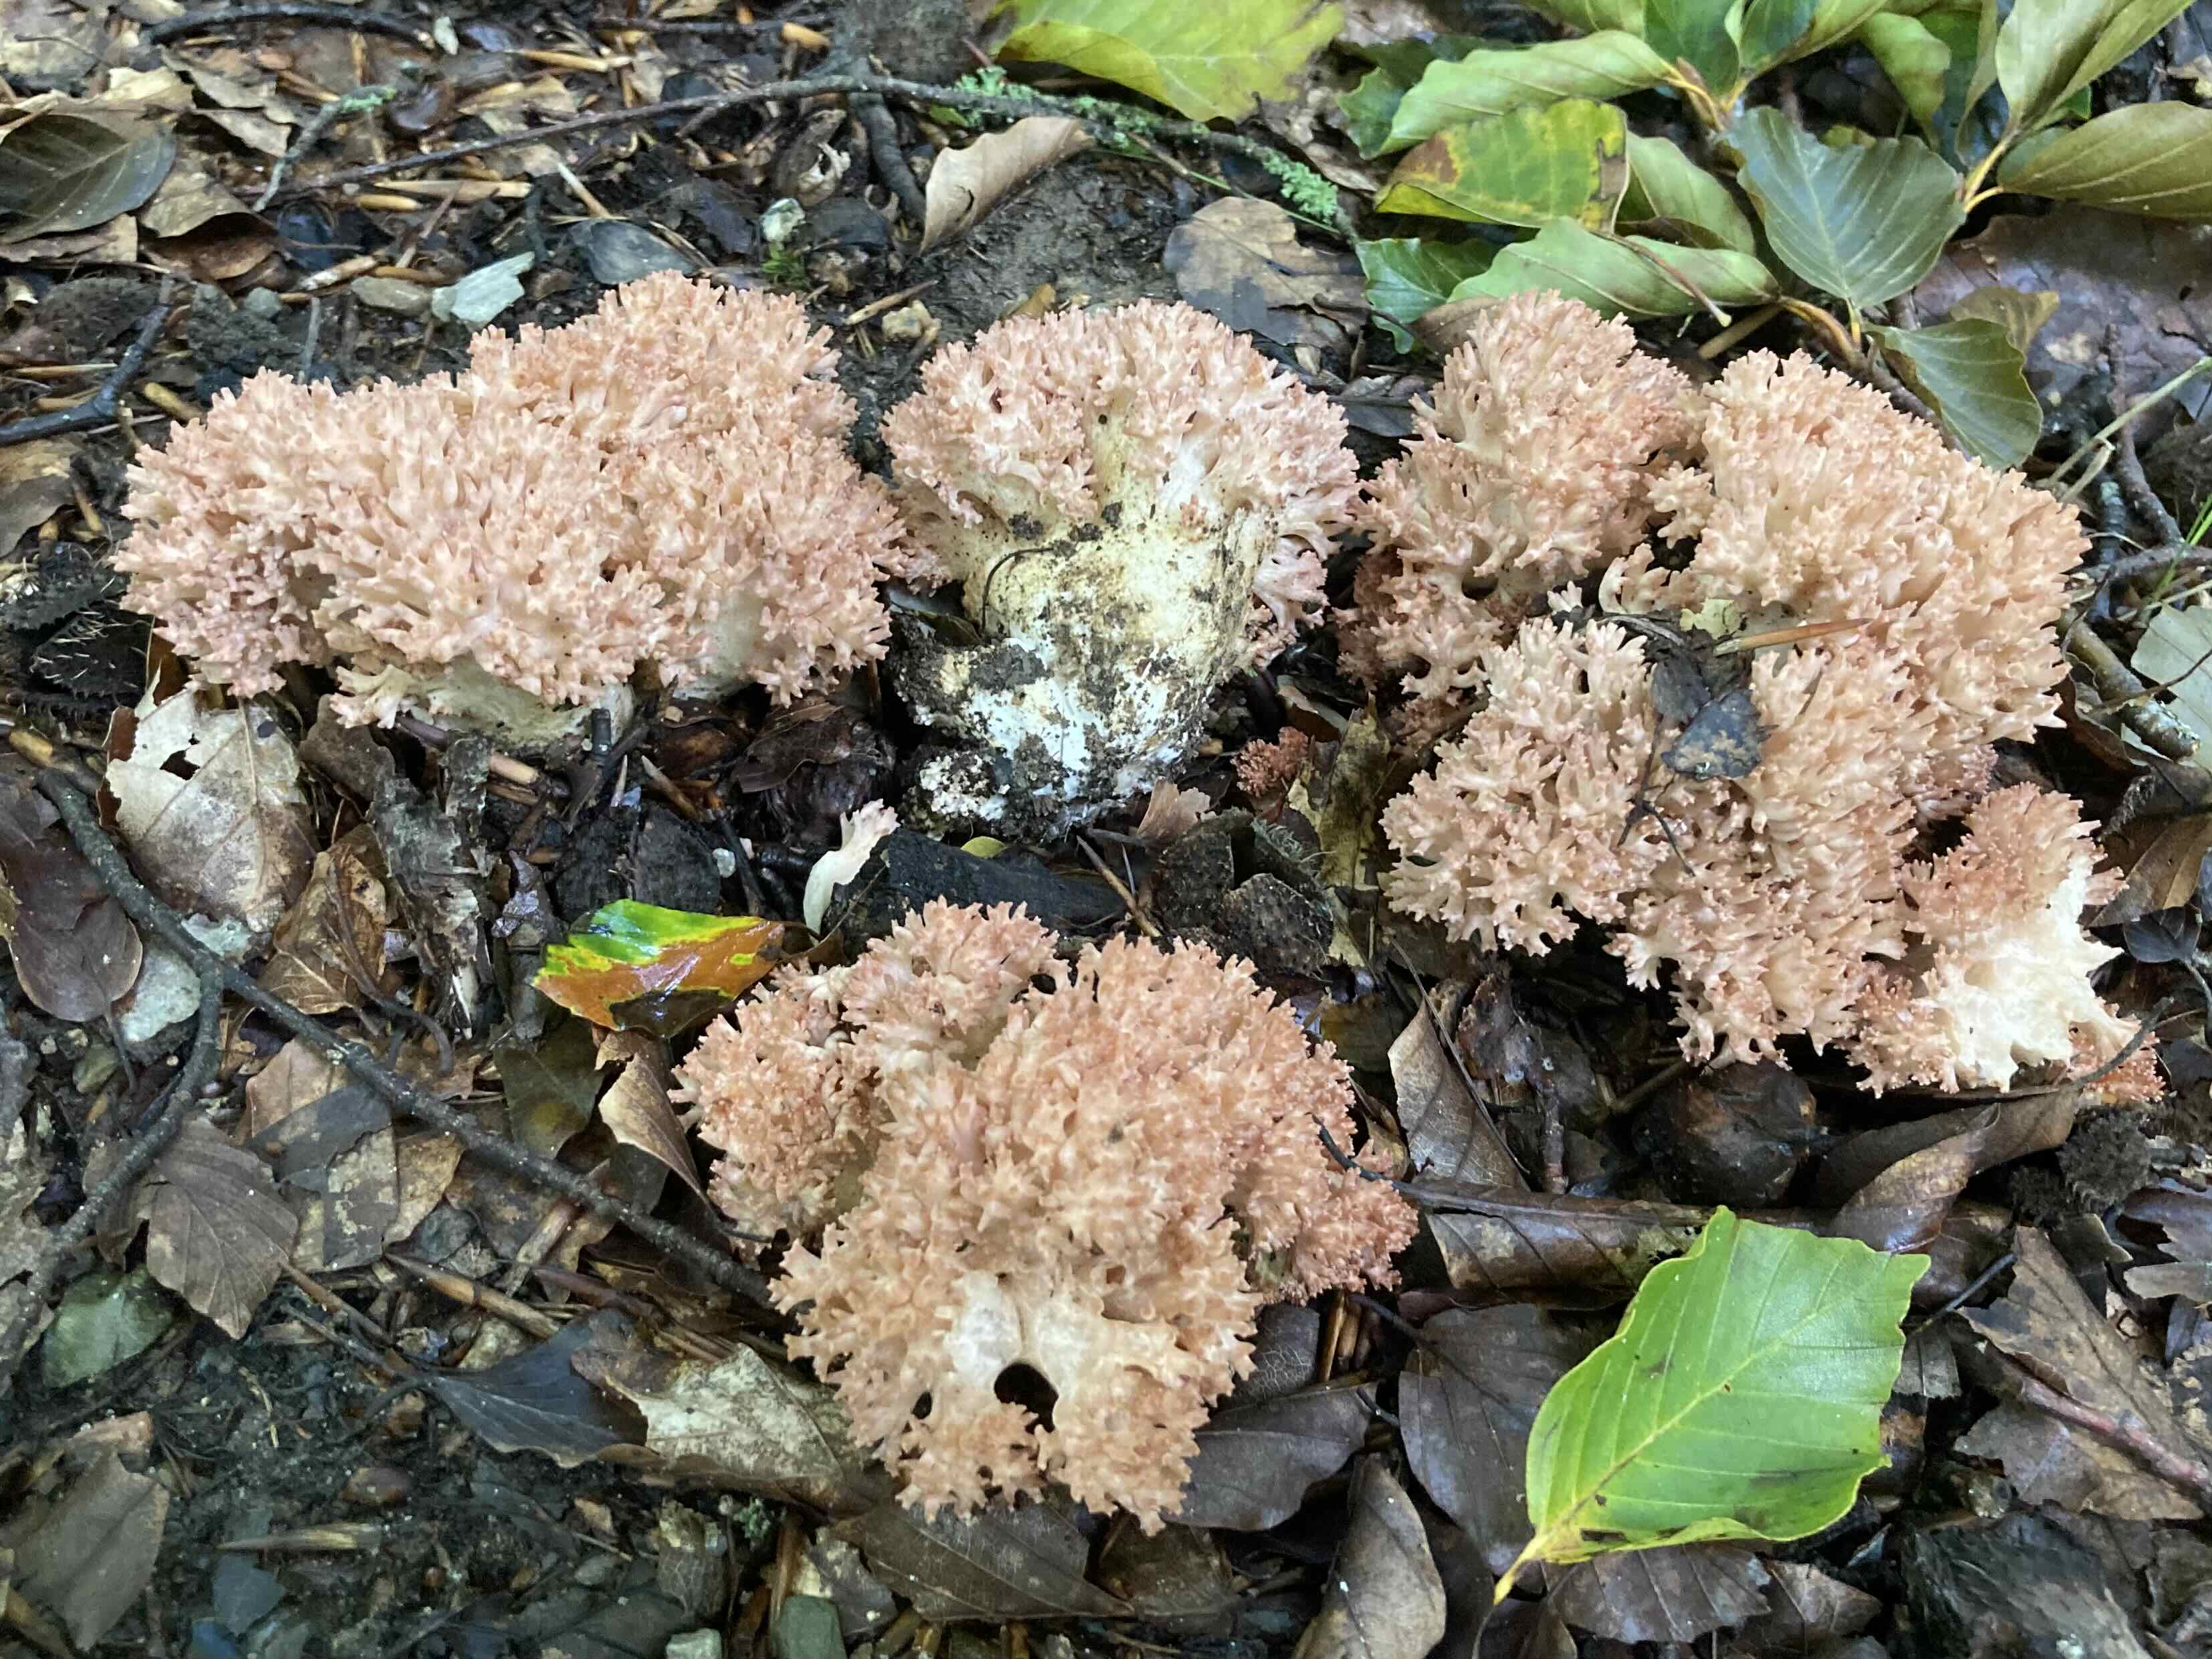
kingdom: Fungi
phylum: Basidiomycota
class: Agaricomycetes
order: Gomphales
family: Gomphaceae
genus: Ramaria
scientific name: Ramaria botrytis
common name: drue-koralsvamp
